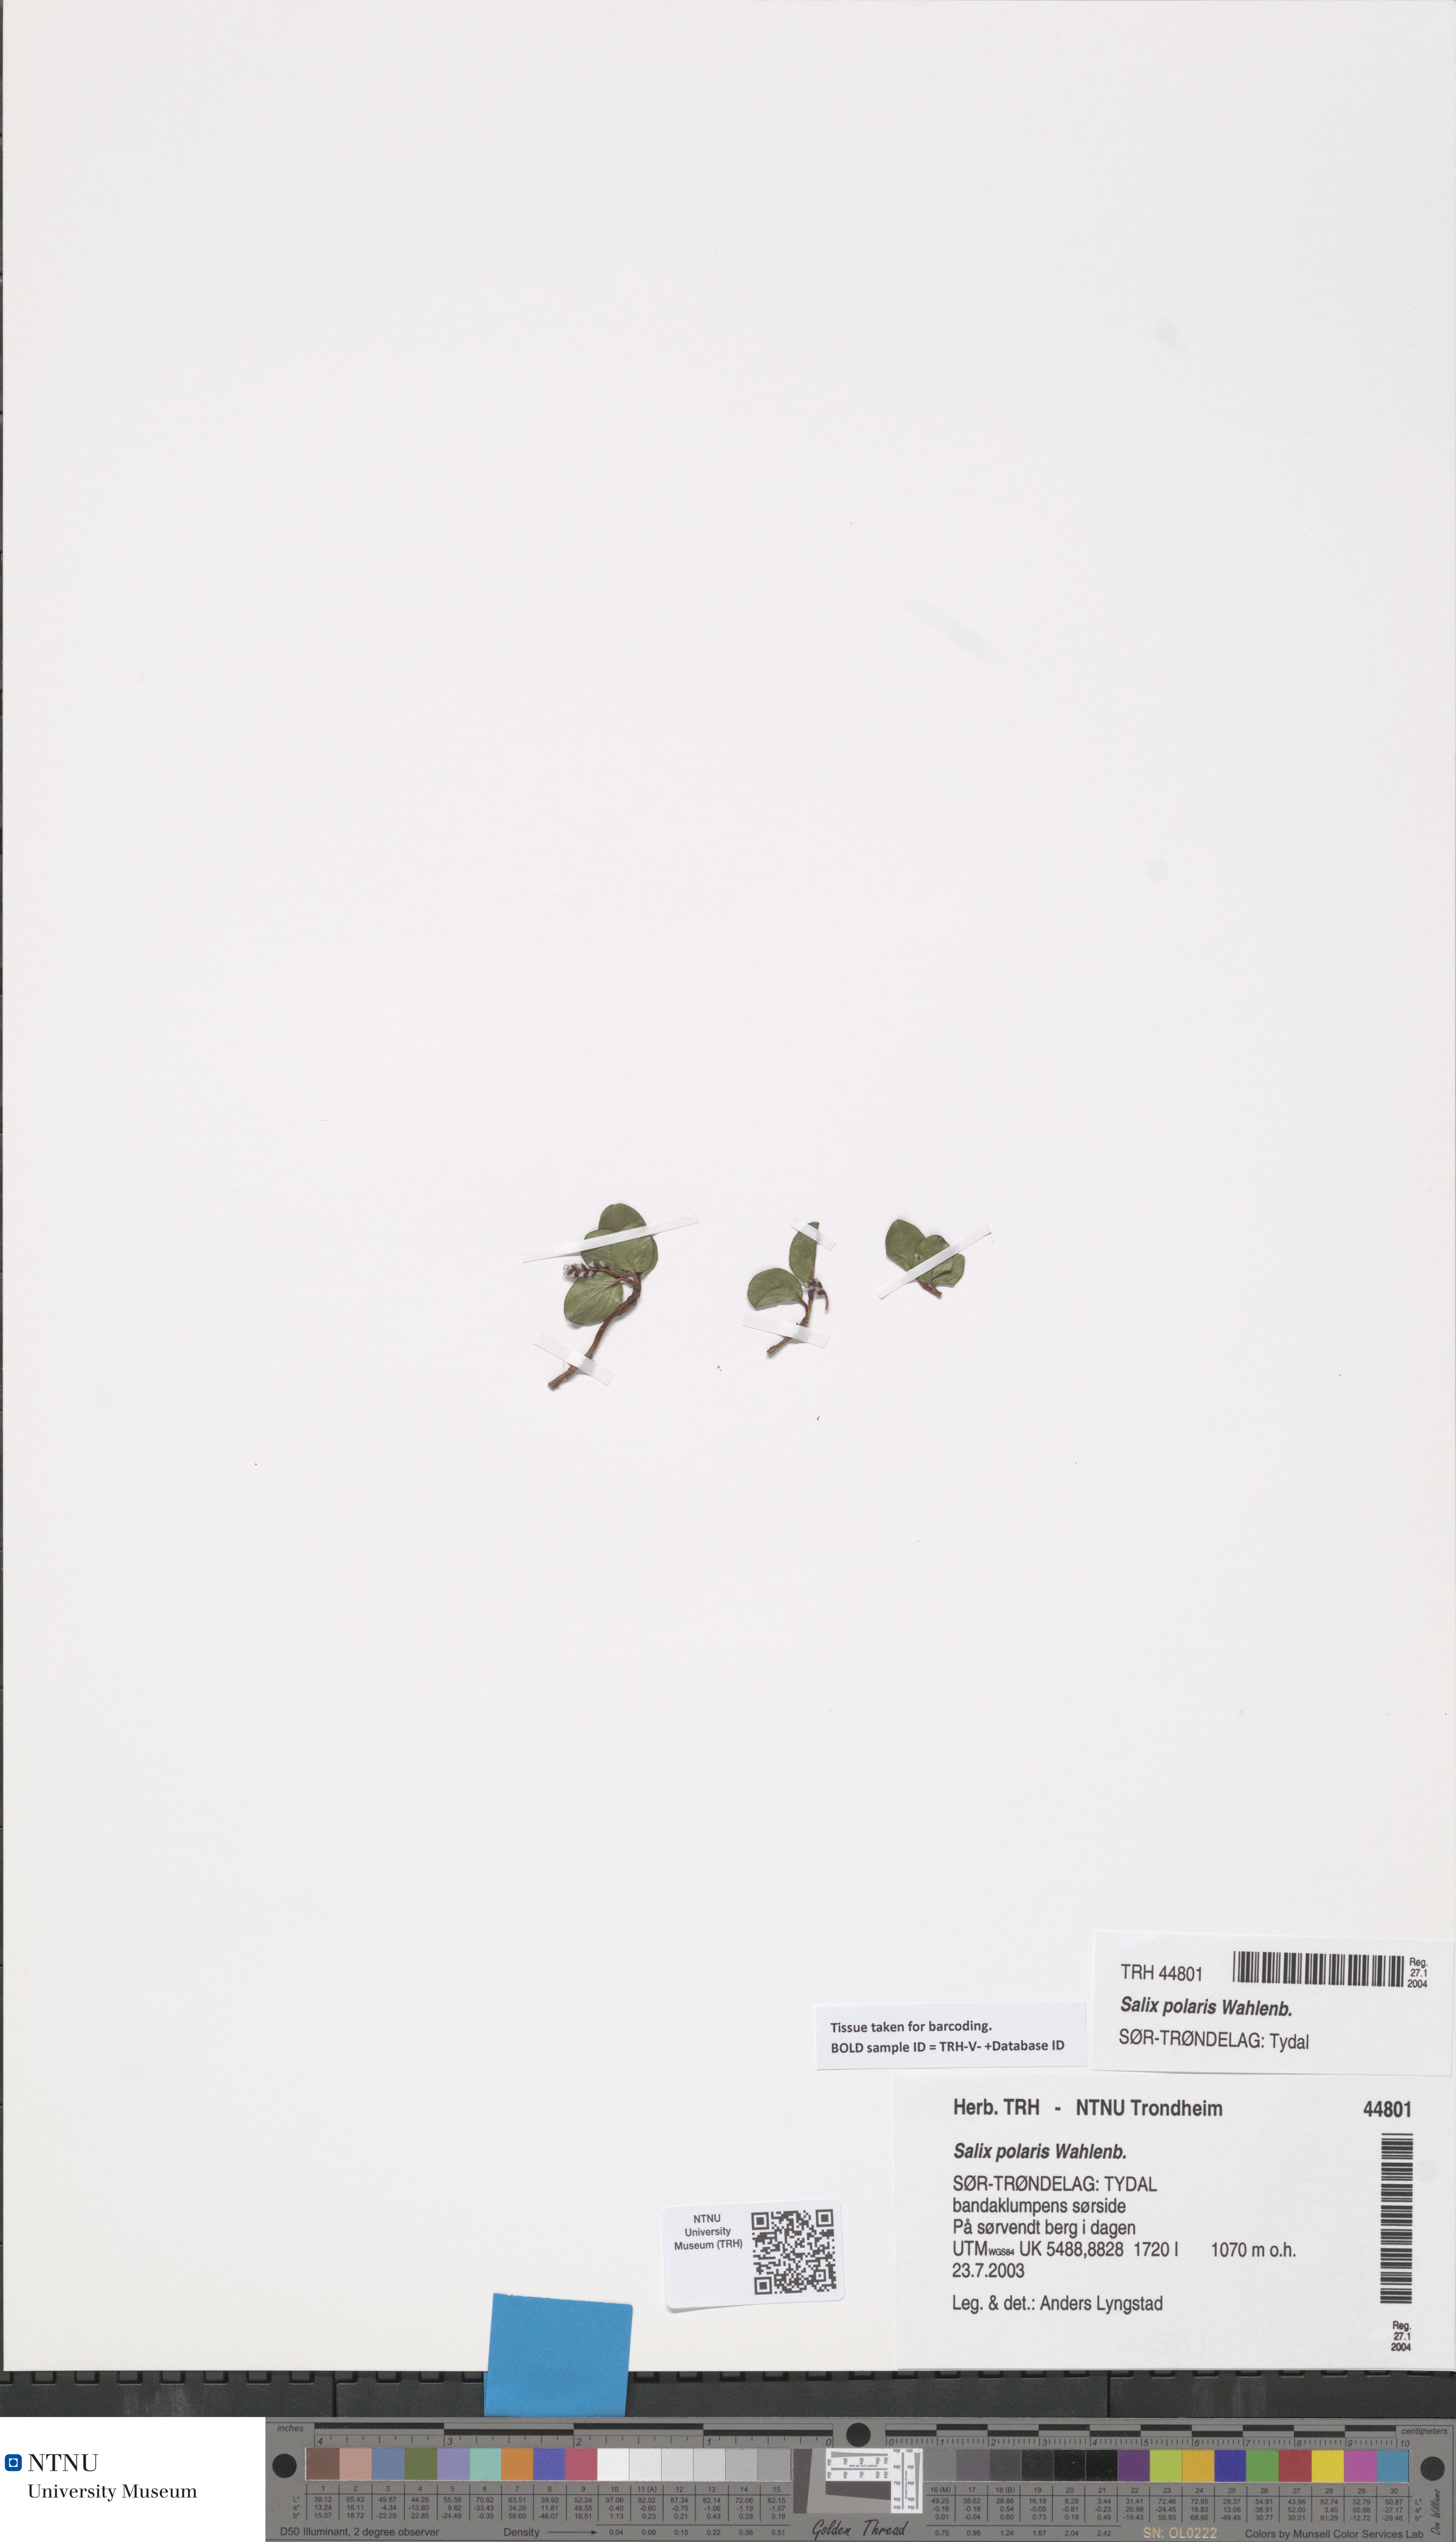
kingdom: Plantae
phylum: Tracheophyta
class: Magnoliopsida
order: Malpighiales
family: Salicaceae
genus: Salix
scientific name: Salix polaris
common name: Polar willow
